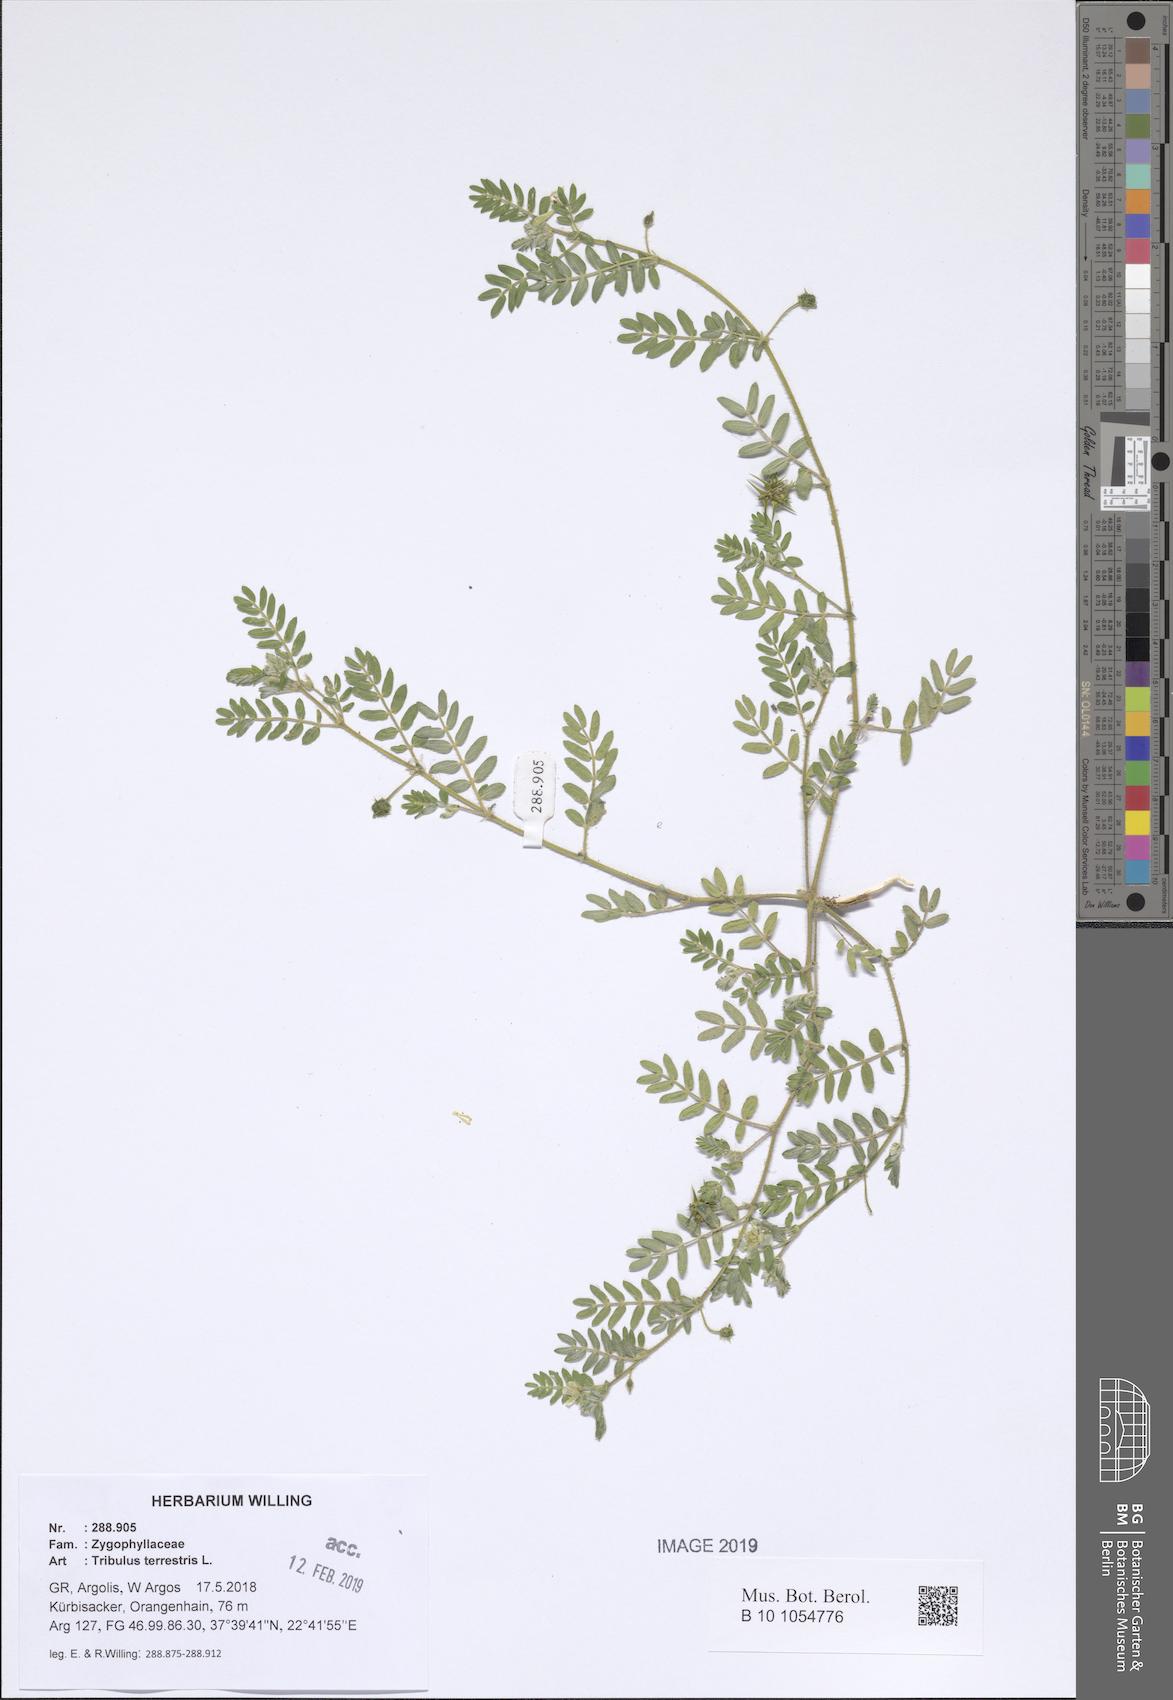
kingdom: Plantae
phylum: Tracheophyta
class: Magnoliopsida
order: Zygophyllales
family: Zygophyllaceae
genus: Tribulus
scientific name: Tribulus terrestris
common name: Puncturevine
